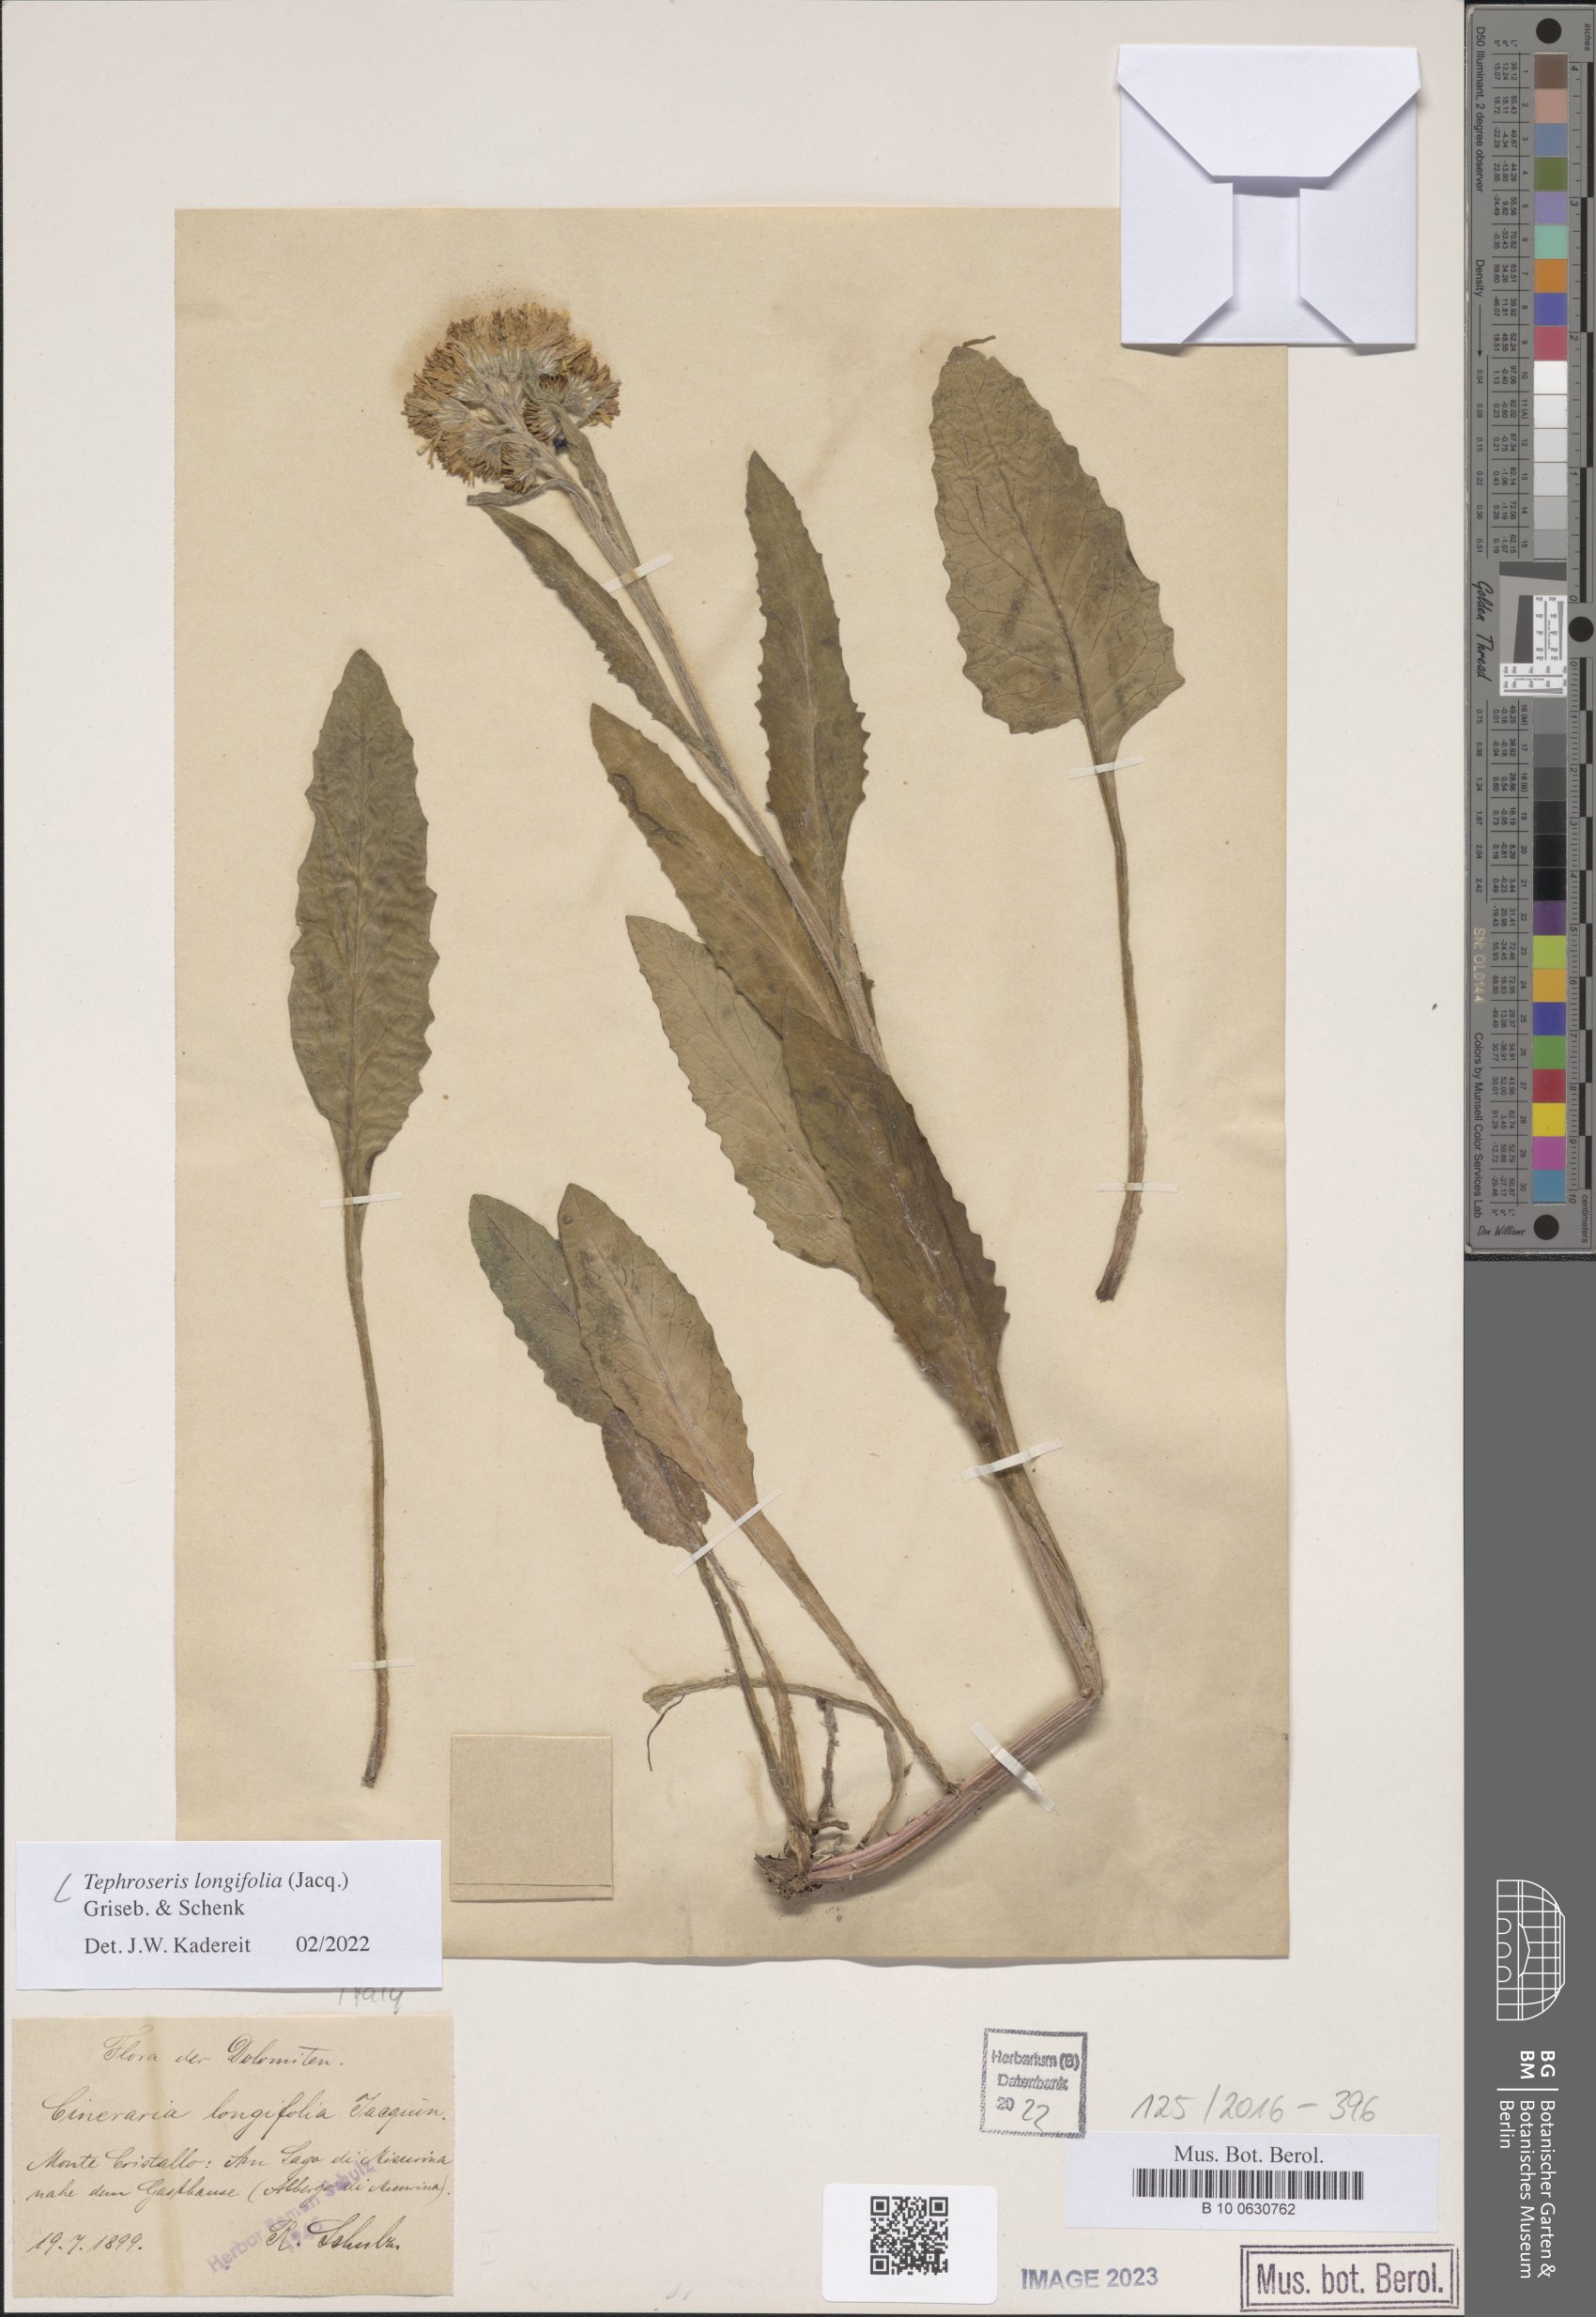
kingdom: Plantae
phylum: Tracheophyta
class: Magnoliopsida
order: Asterales
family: Asteraceae
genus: Tephroseris
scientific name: Tephroseris longifolia
